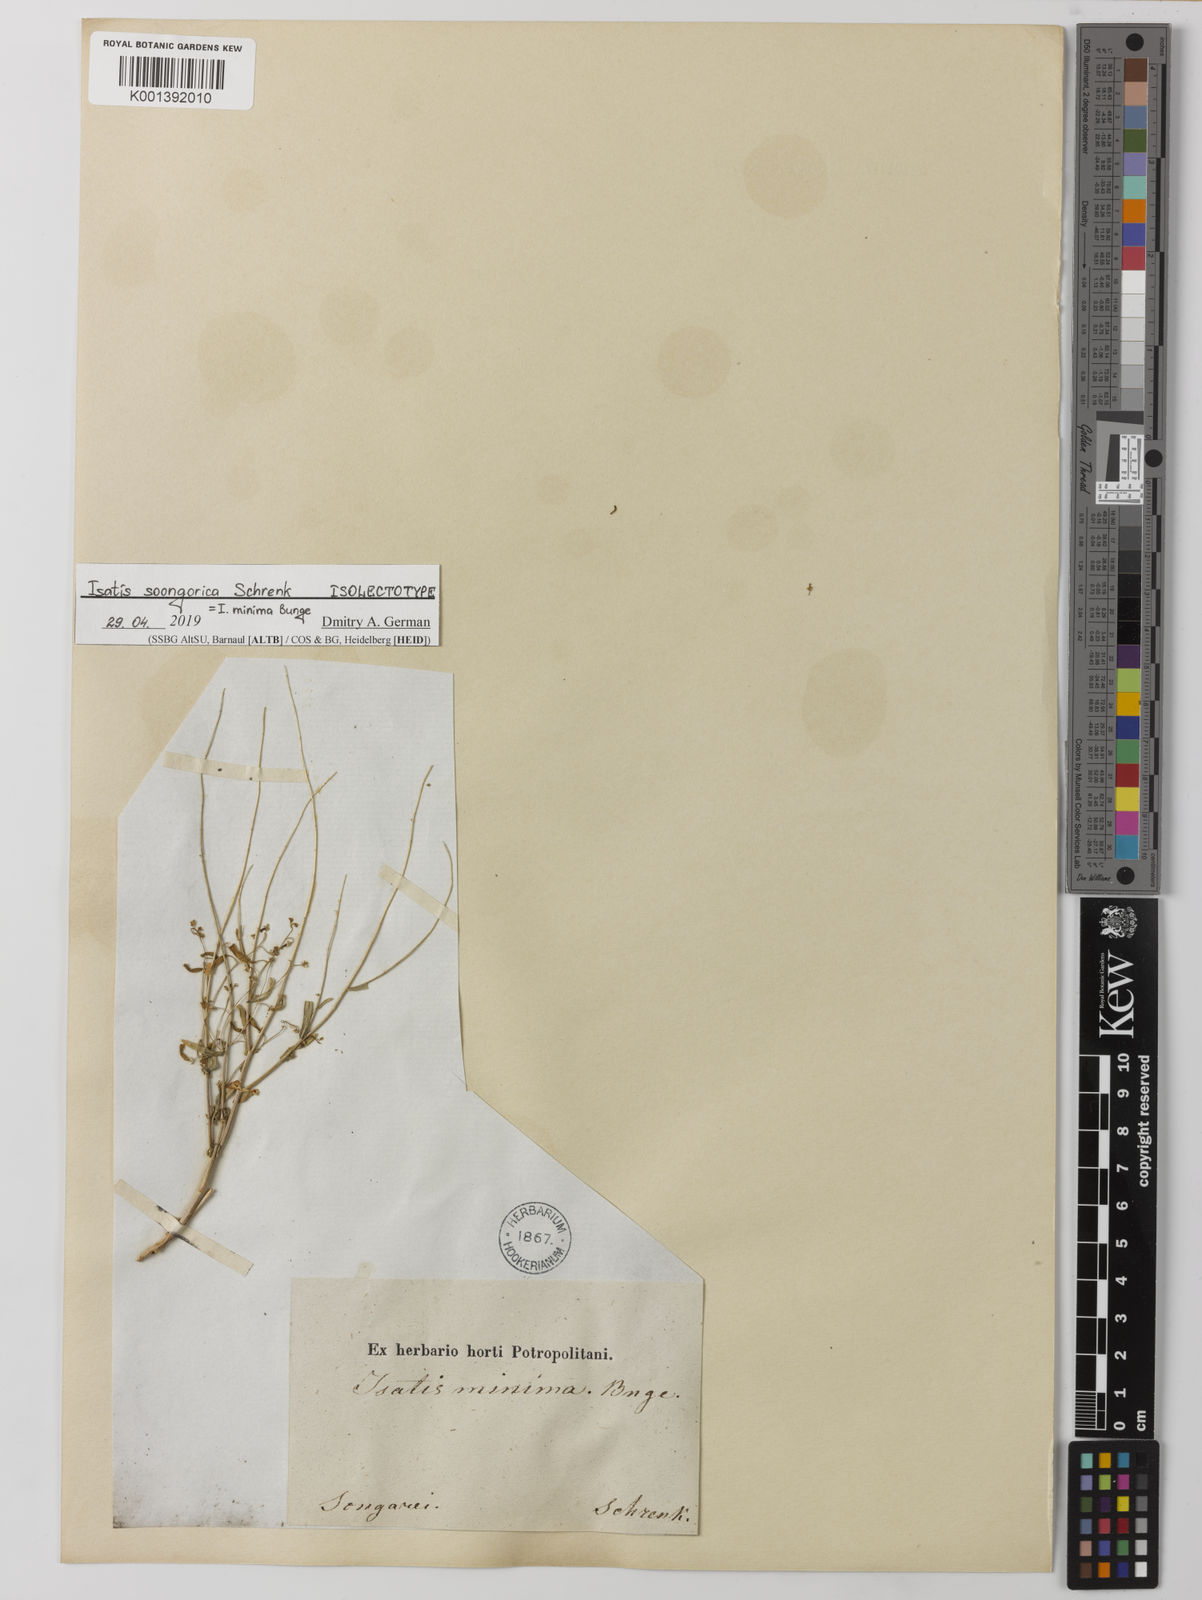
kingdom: Plantae
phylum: Tracheophyta
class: Magnoliopsida
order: Brassicales
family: Brassicaceae
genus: Isatis
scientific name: Isatis minima
